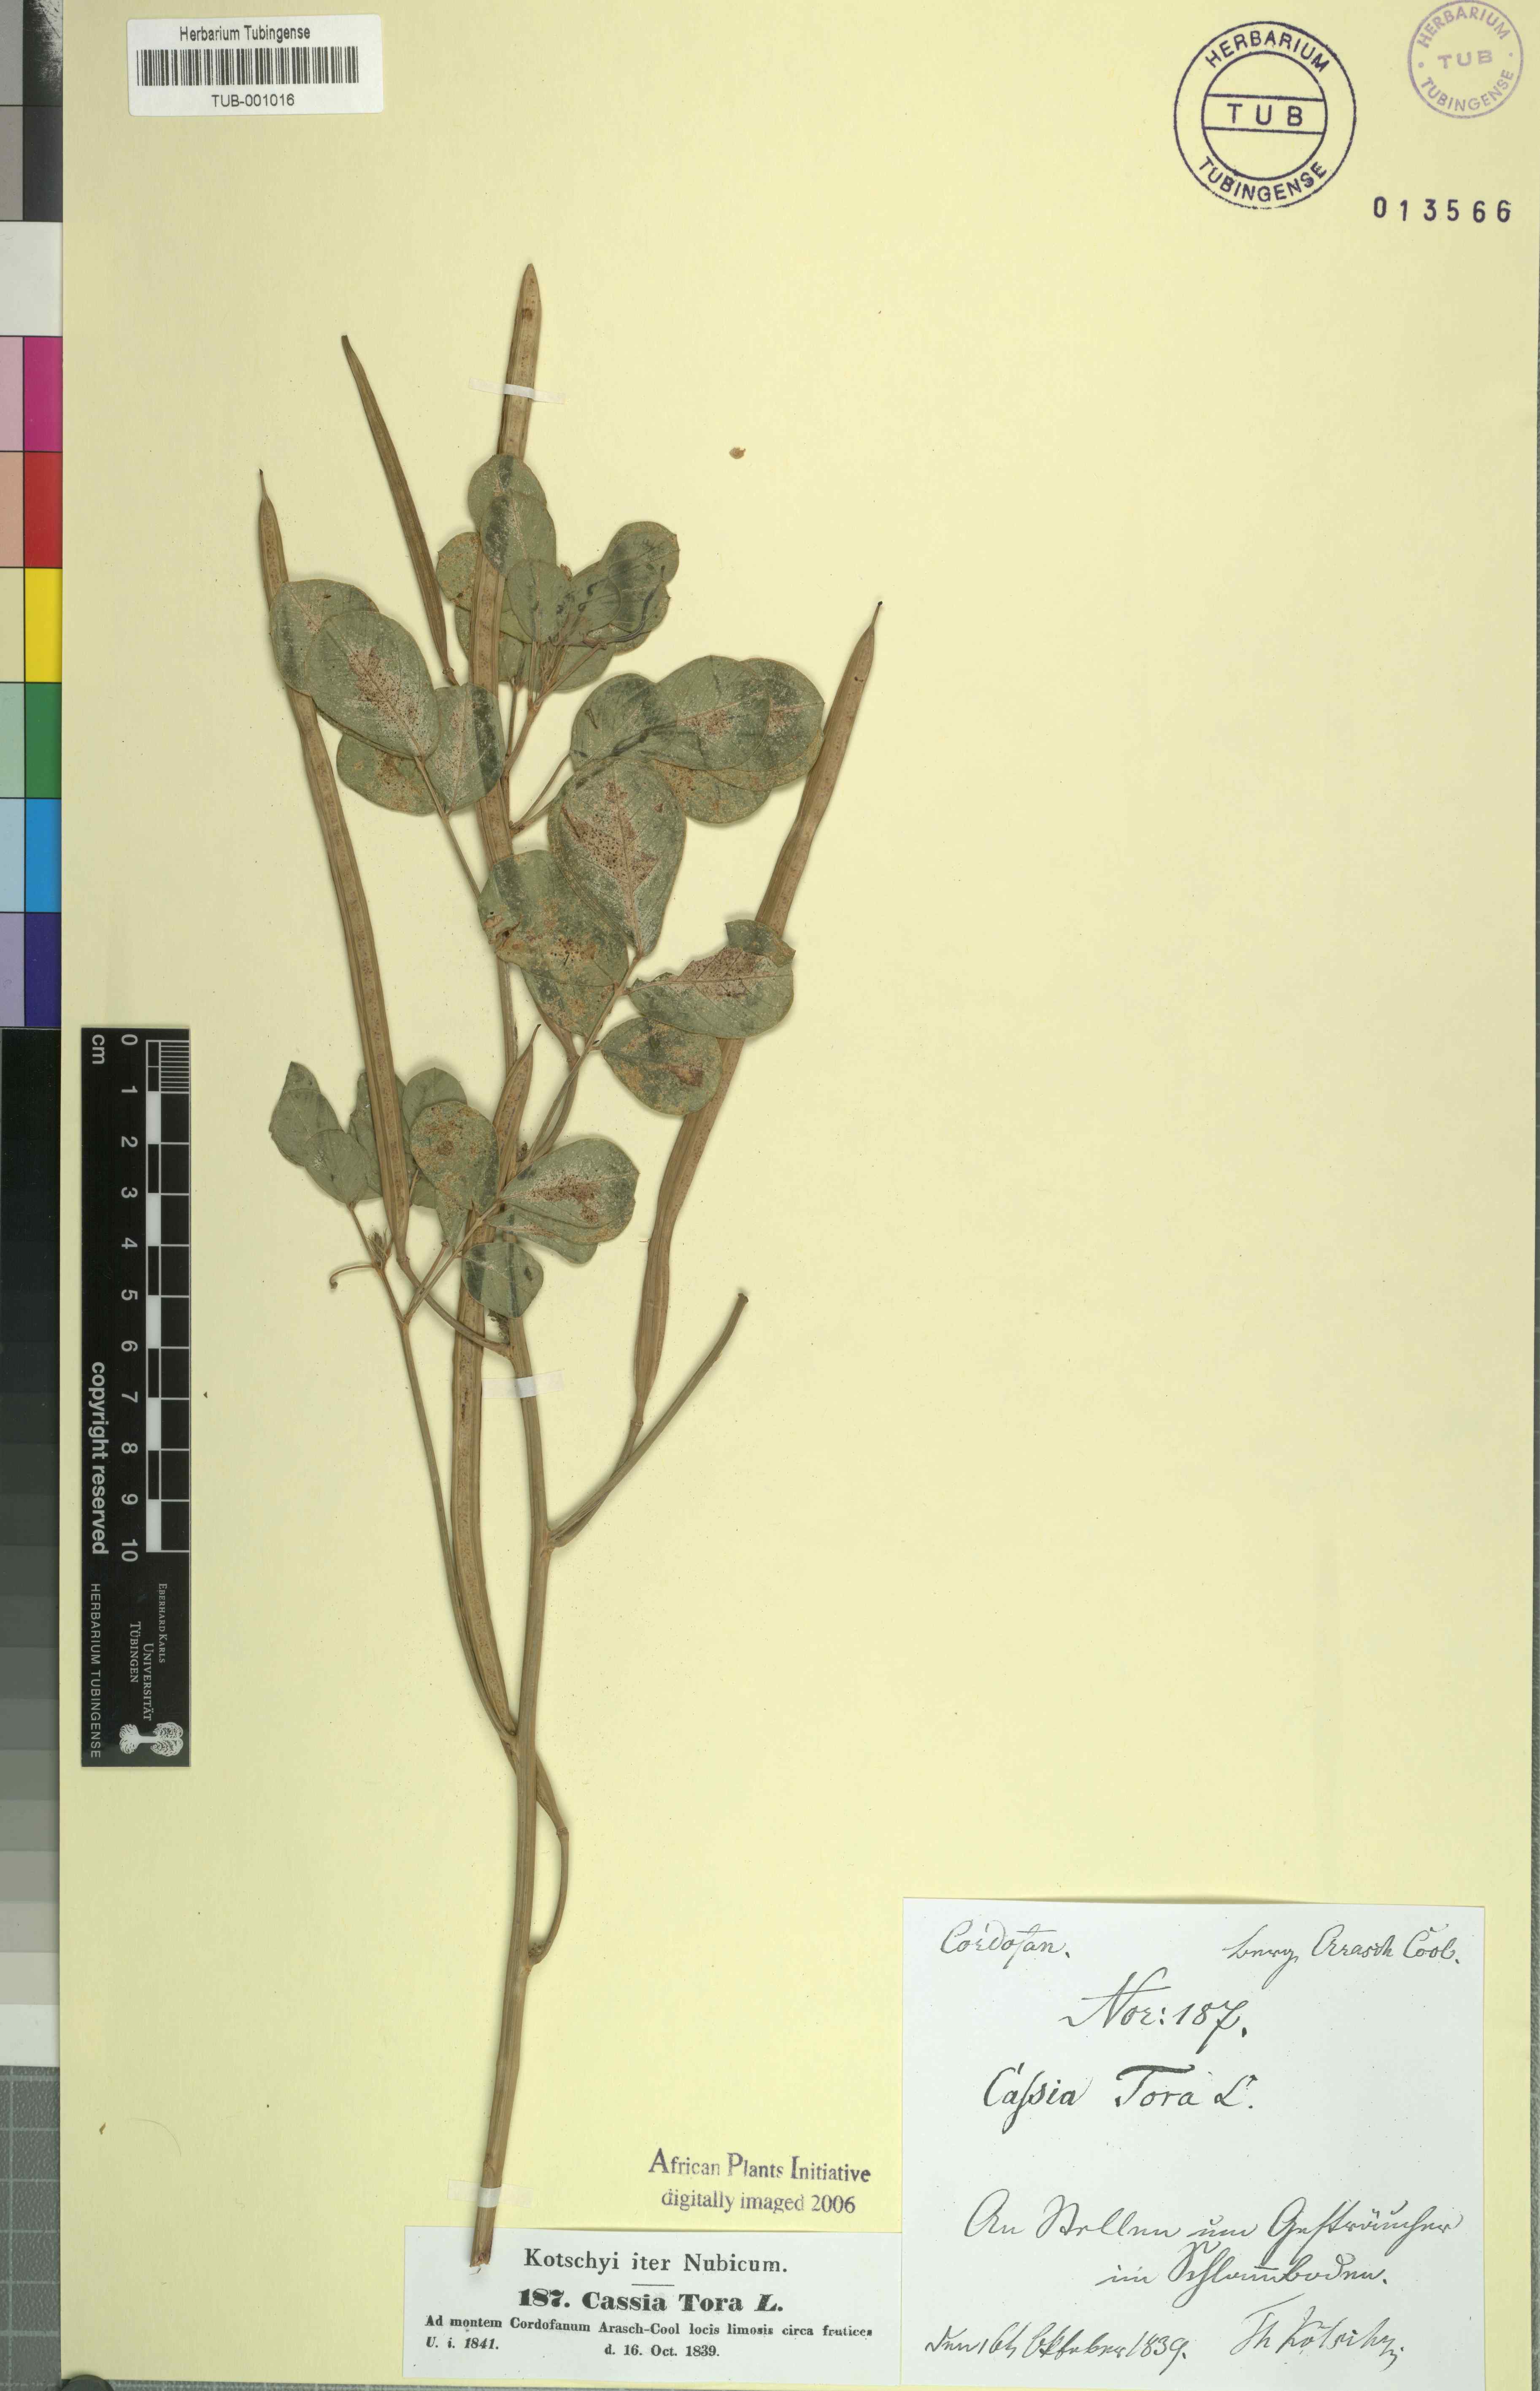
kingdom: Plantae
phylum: Tracheophyta
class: Magnoliopsida
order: Fabales
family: Fabaceae
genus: Senna
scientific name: Senna tora
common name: Sickle senna
